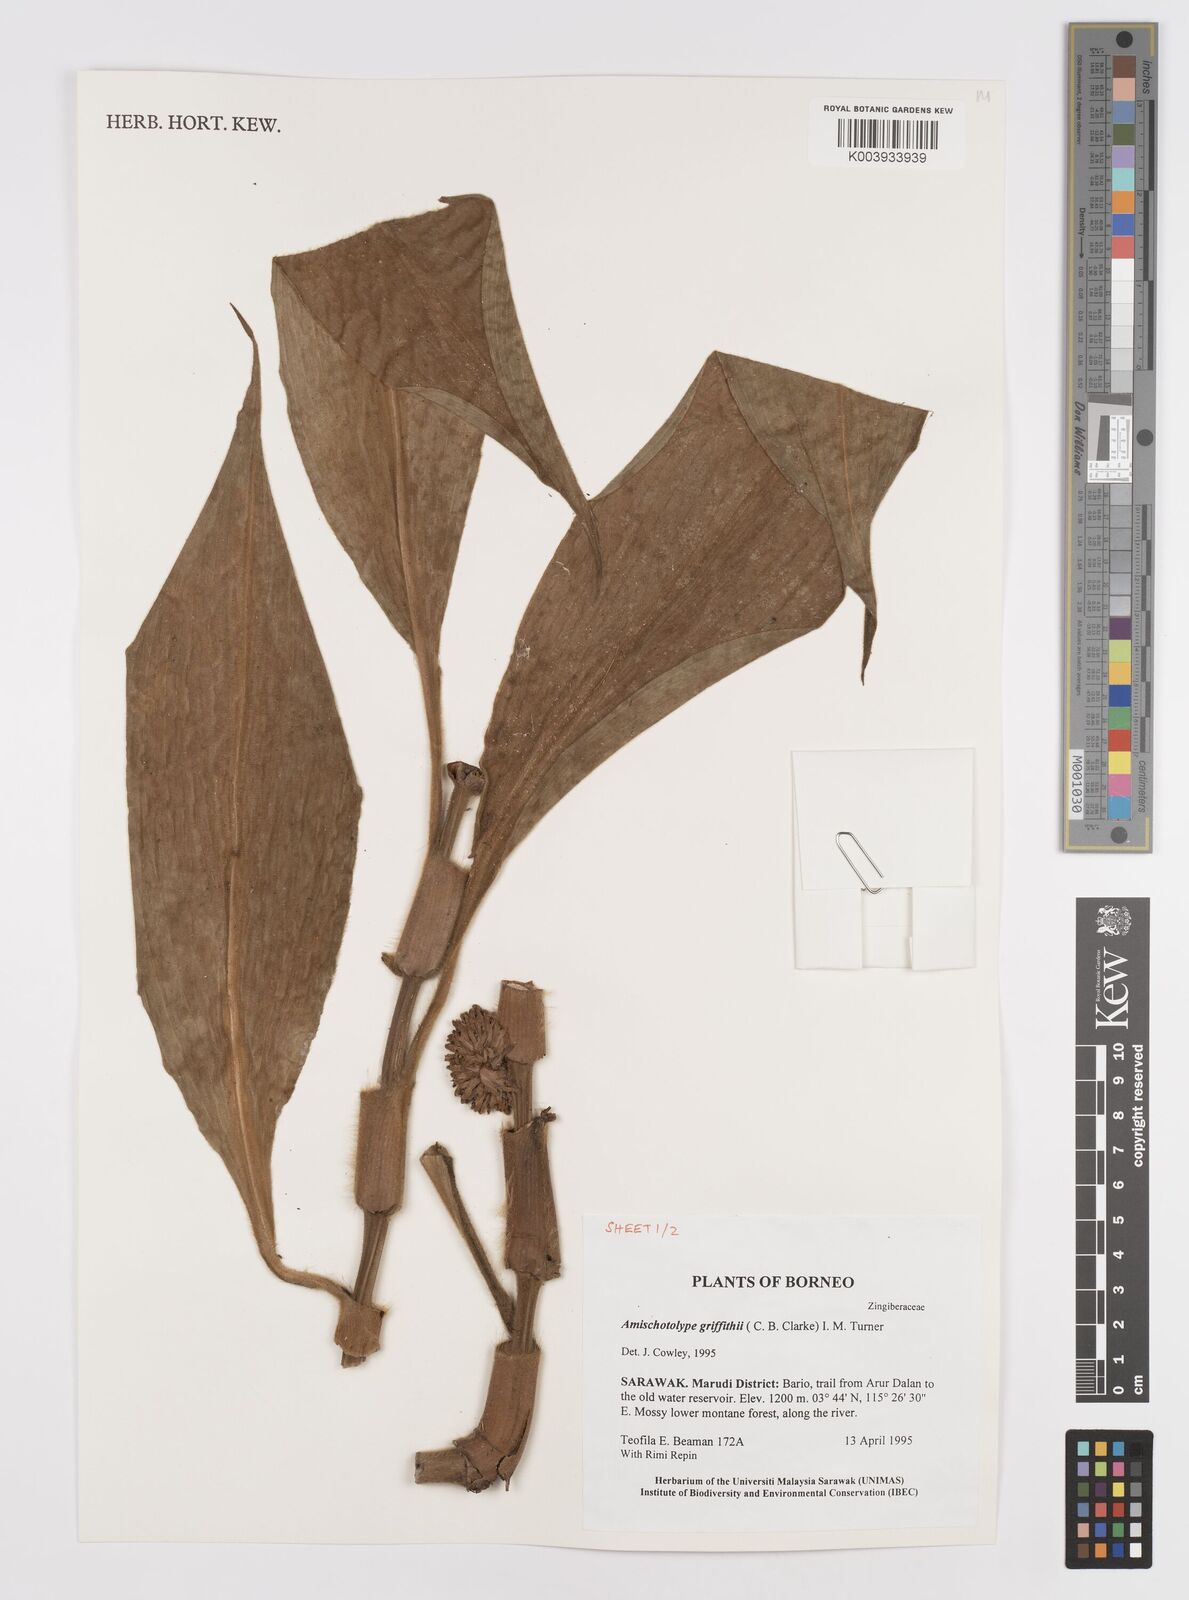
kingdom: Plantae
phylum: Tracheophyta
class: Liliopsida
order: Commelinales
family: Commelinaceae
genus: Amischotolype
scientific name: Amischotolype griffithii
